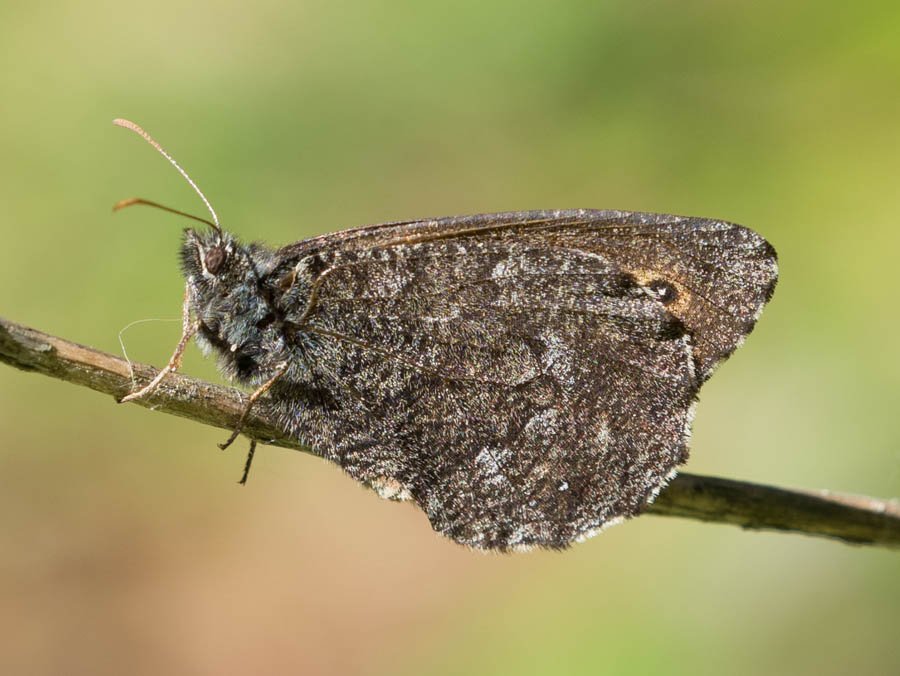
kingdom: Animalia
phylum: Arthropoda
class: Insecta
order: Lepidoptera
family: Nymphalidae
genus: Oeneis
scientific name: Oeneis jutta
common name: Jutta Arctic
